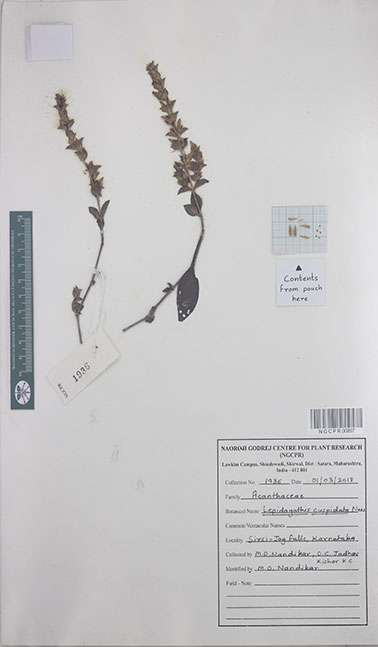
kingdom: Plantae
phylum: Tracheophyta
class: Magnoliopsida
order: Lamiales
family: Acanthaceae
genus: Lepidagathis
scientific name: Lepidagathis cuspidata
